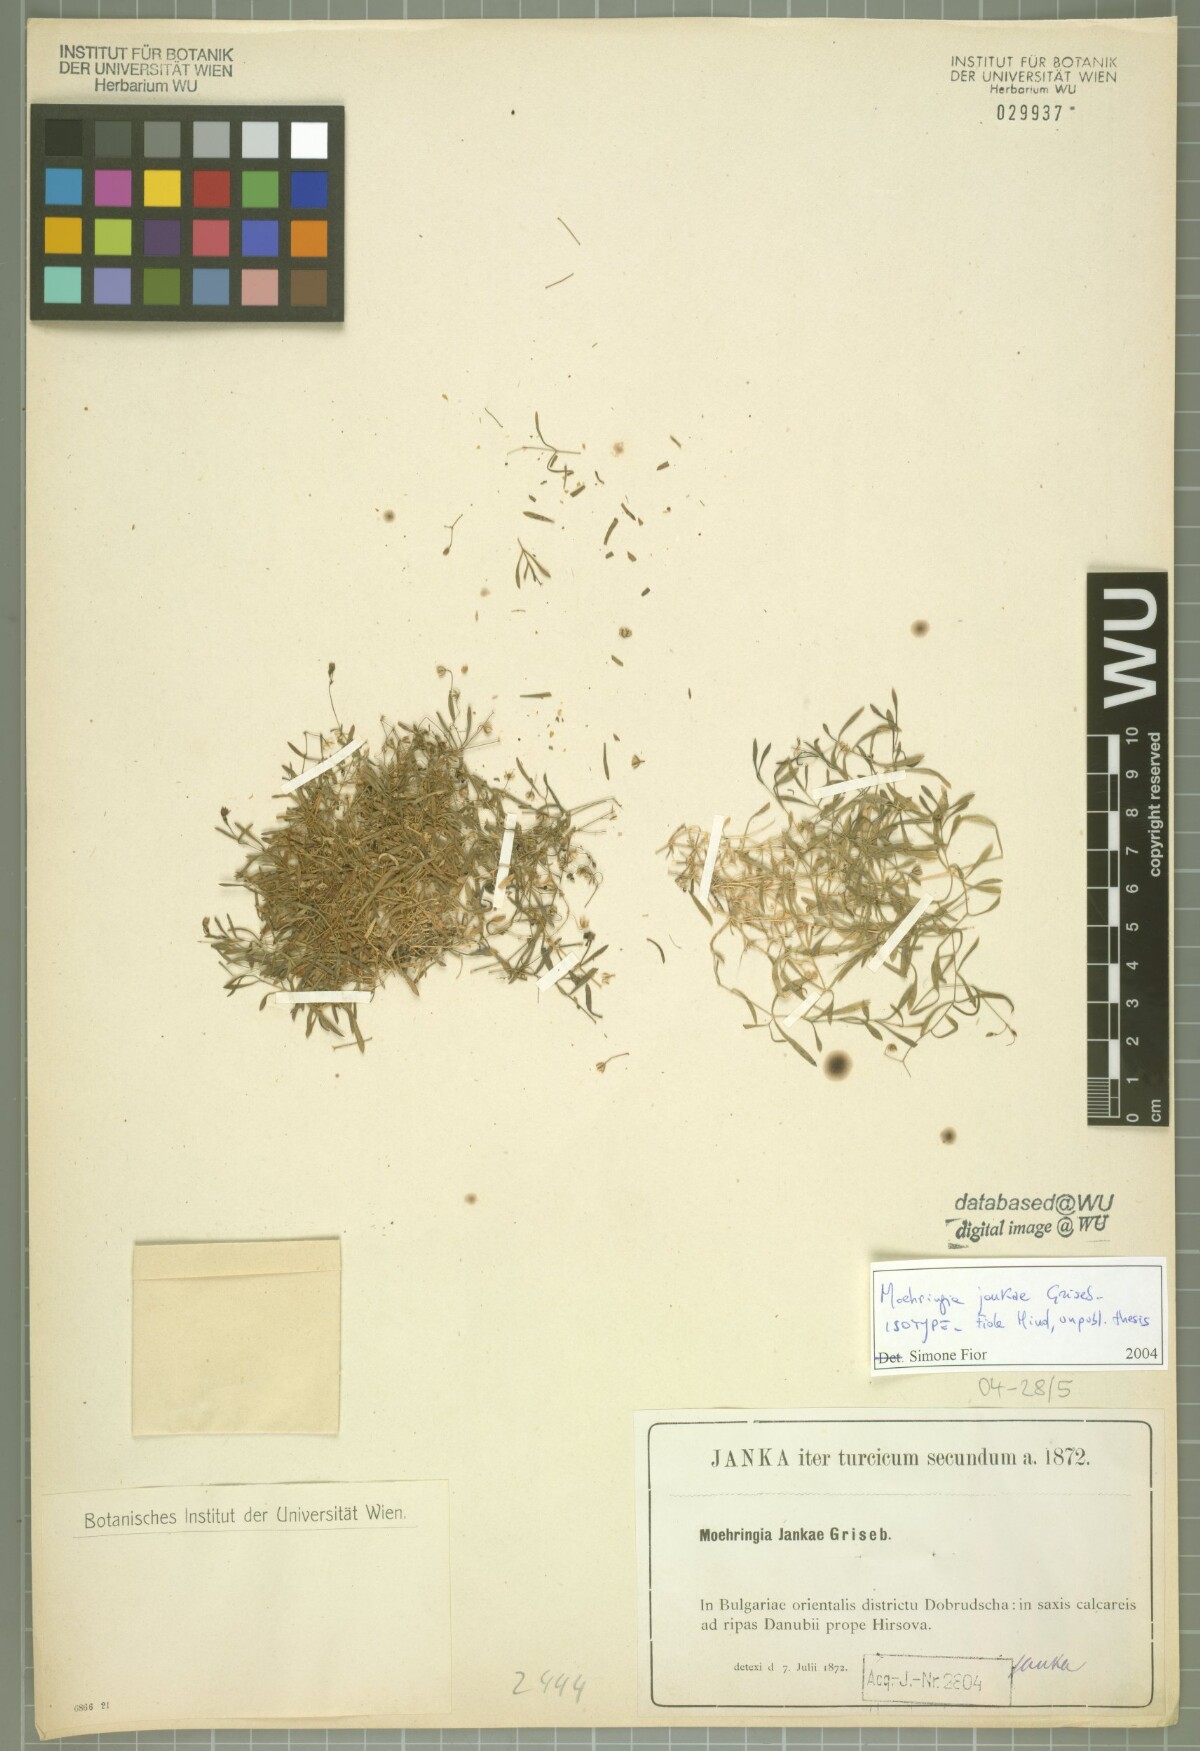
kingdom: Plantae
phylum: Tracheophyta
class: Magnoliopsida
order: Caryophyllales
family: Caryophyllaceae
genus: Moehringia
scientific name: Moehringia jankae
